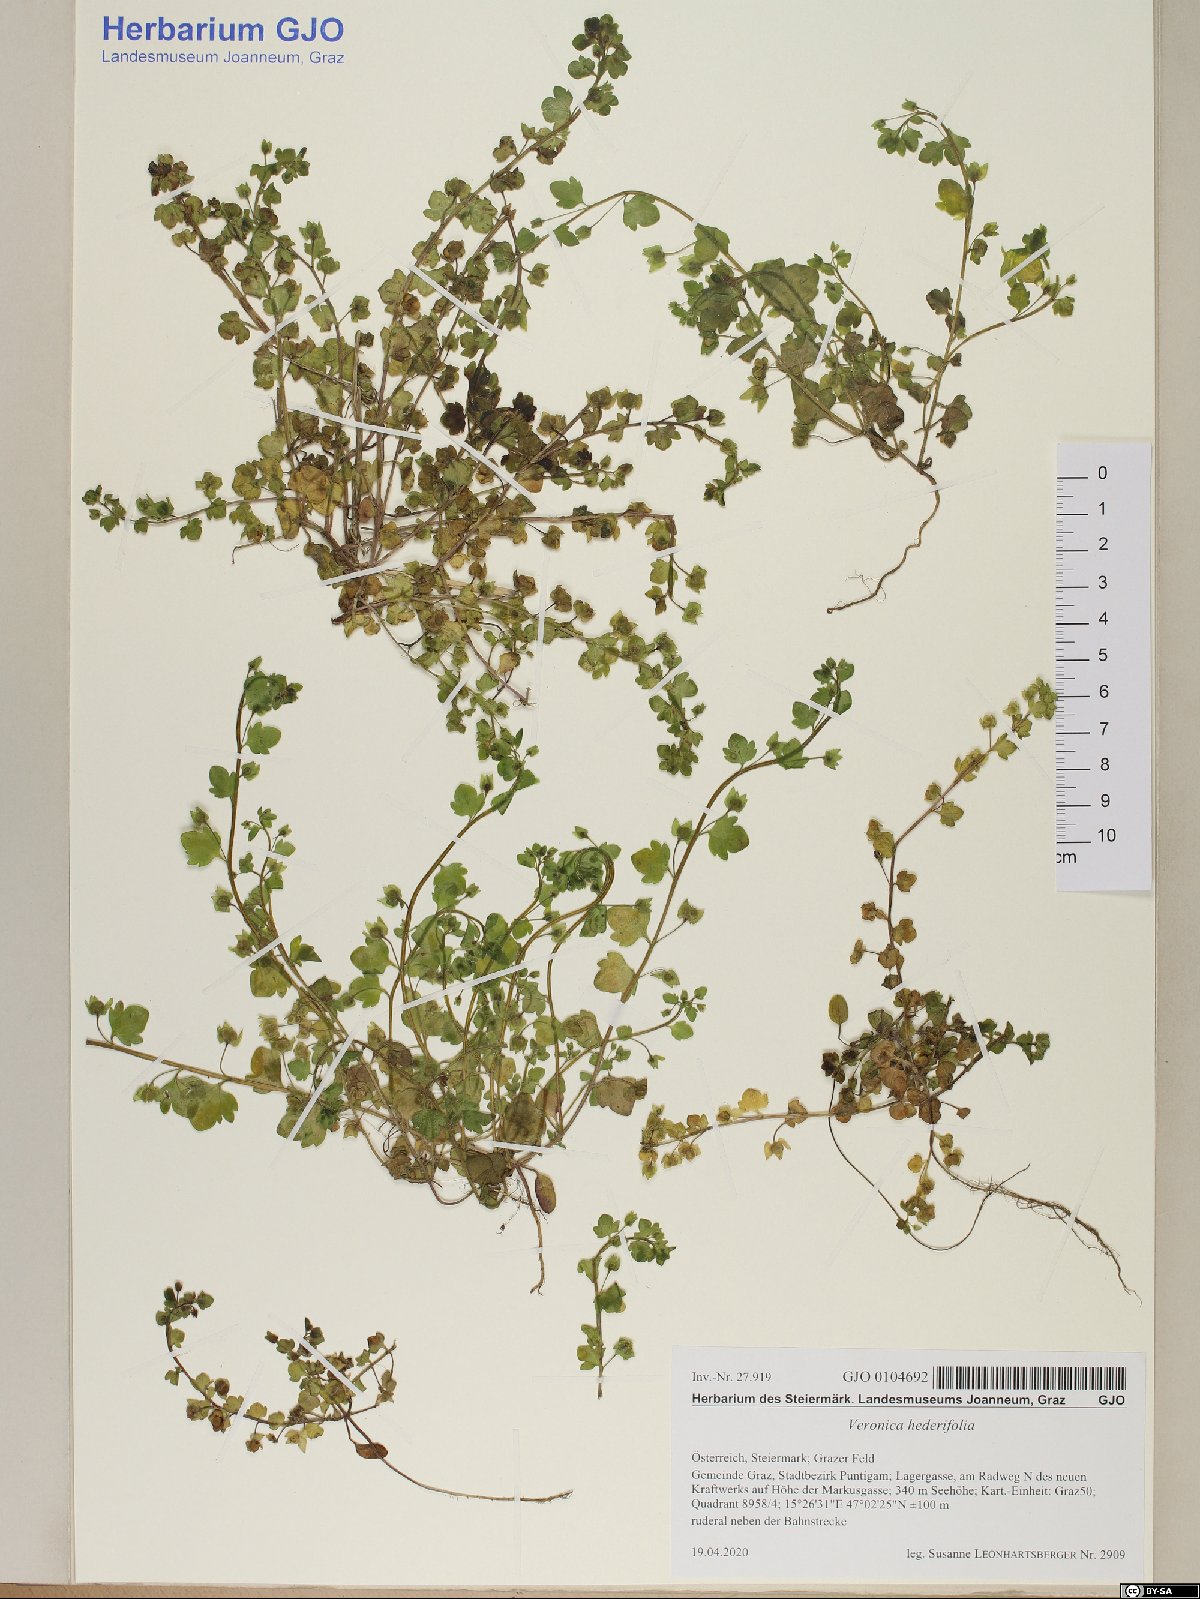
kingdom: Plantae
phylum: Tracheophyta
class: Magnoliopsida
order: Lamiales
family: Plantaginaceae
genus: Veronica
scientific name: Veronica hederifolia
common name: Ivy-leaved speedwell
